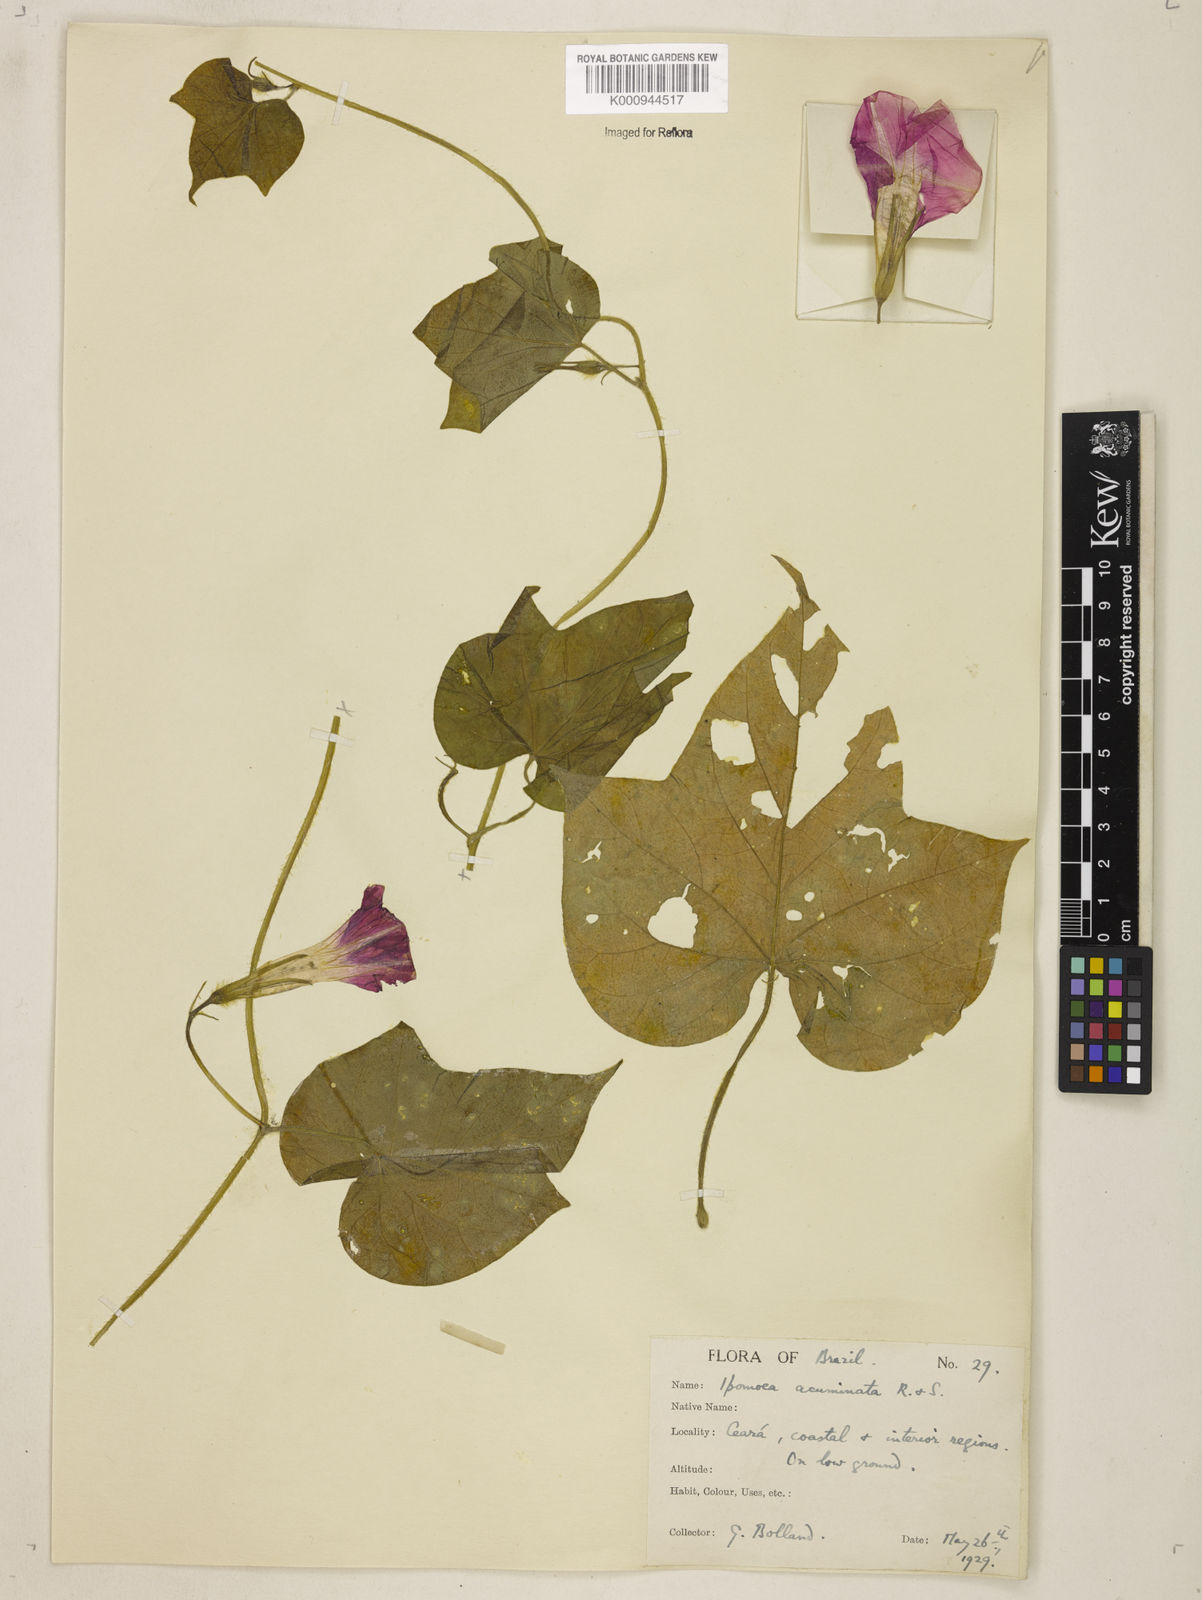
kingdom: Plantae
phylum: Tracheophyta
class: Magnoliopsida
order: Solanales
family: Convolvulaceae
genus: Ipomoea
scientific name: Ipomoea nil
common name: Japanese morning-glory
